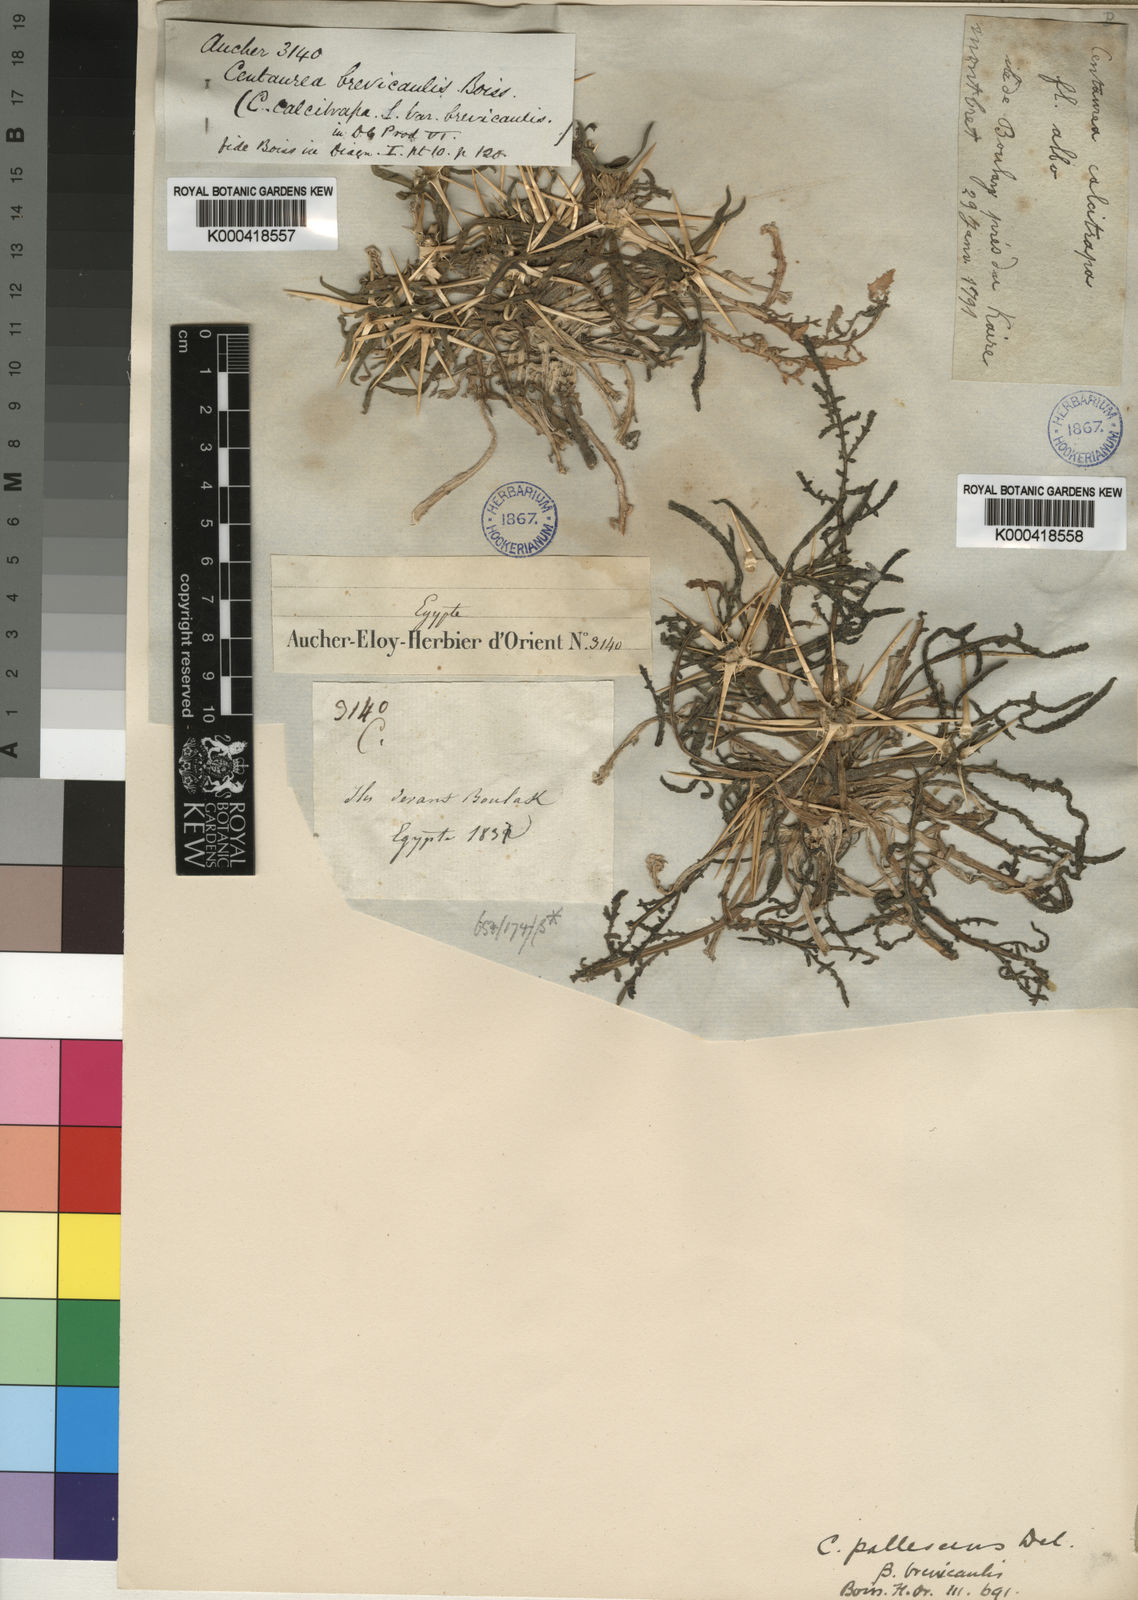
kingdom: Plantae
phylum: Tracheophyta
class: Magnoliopsida
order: Asterales
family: Asteraceae
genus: Centaurea
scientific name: Centaurea pallescens
